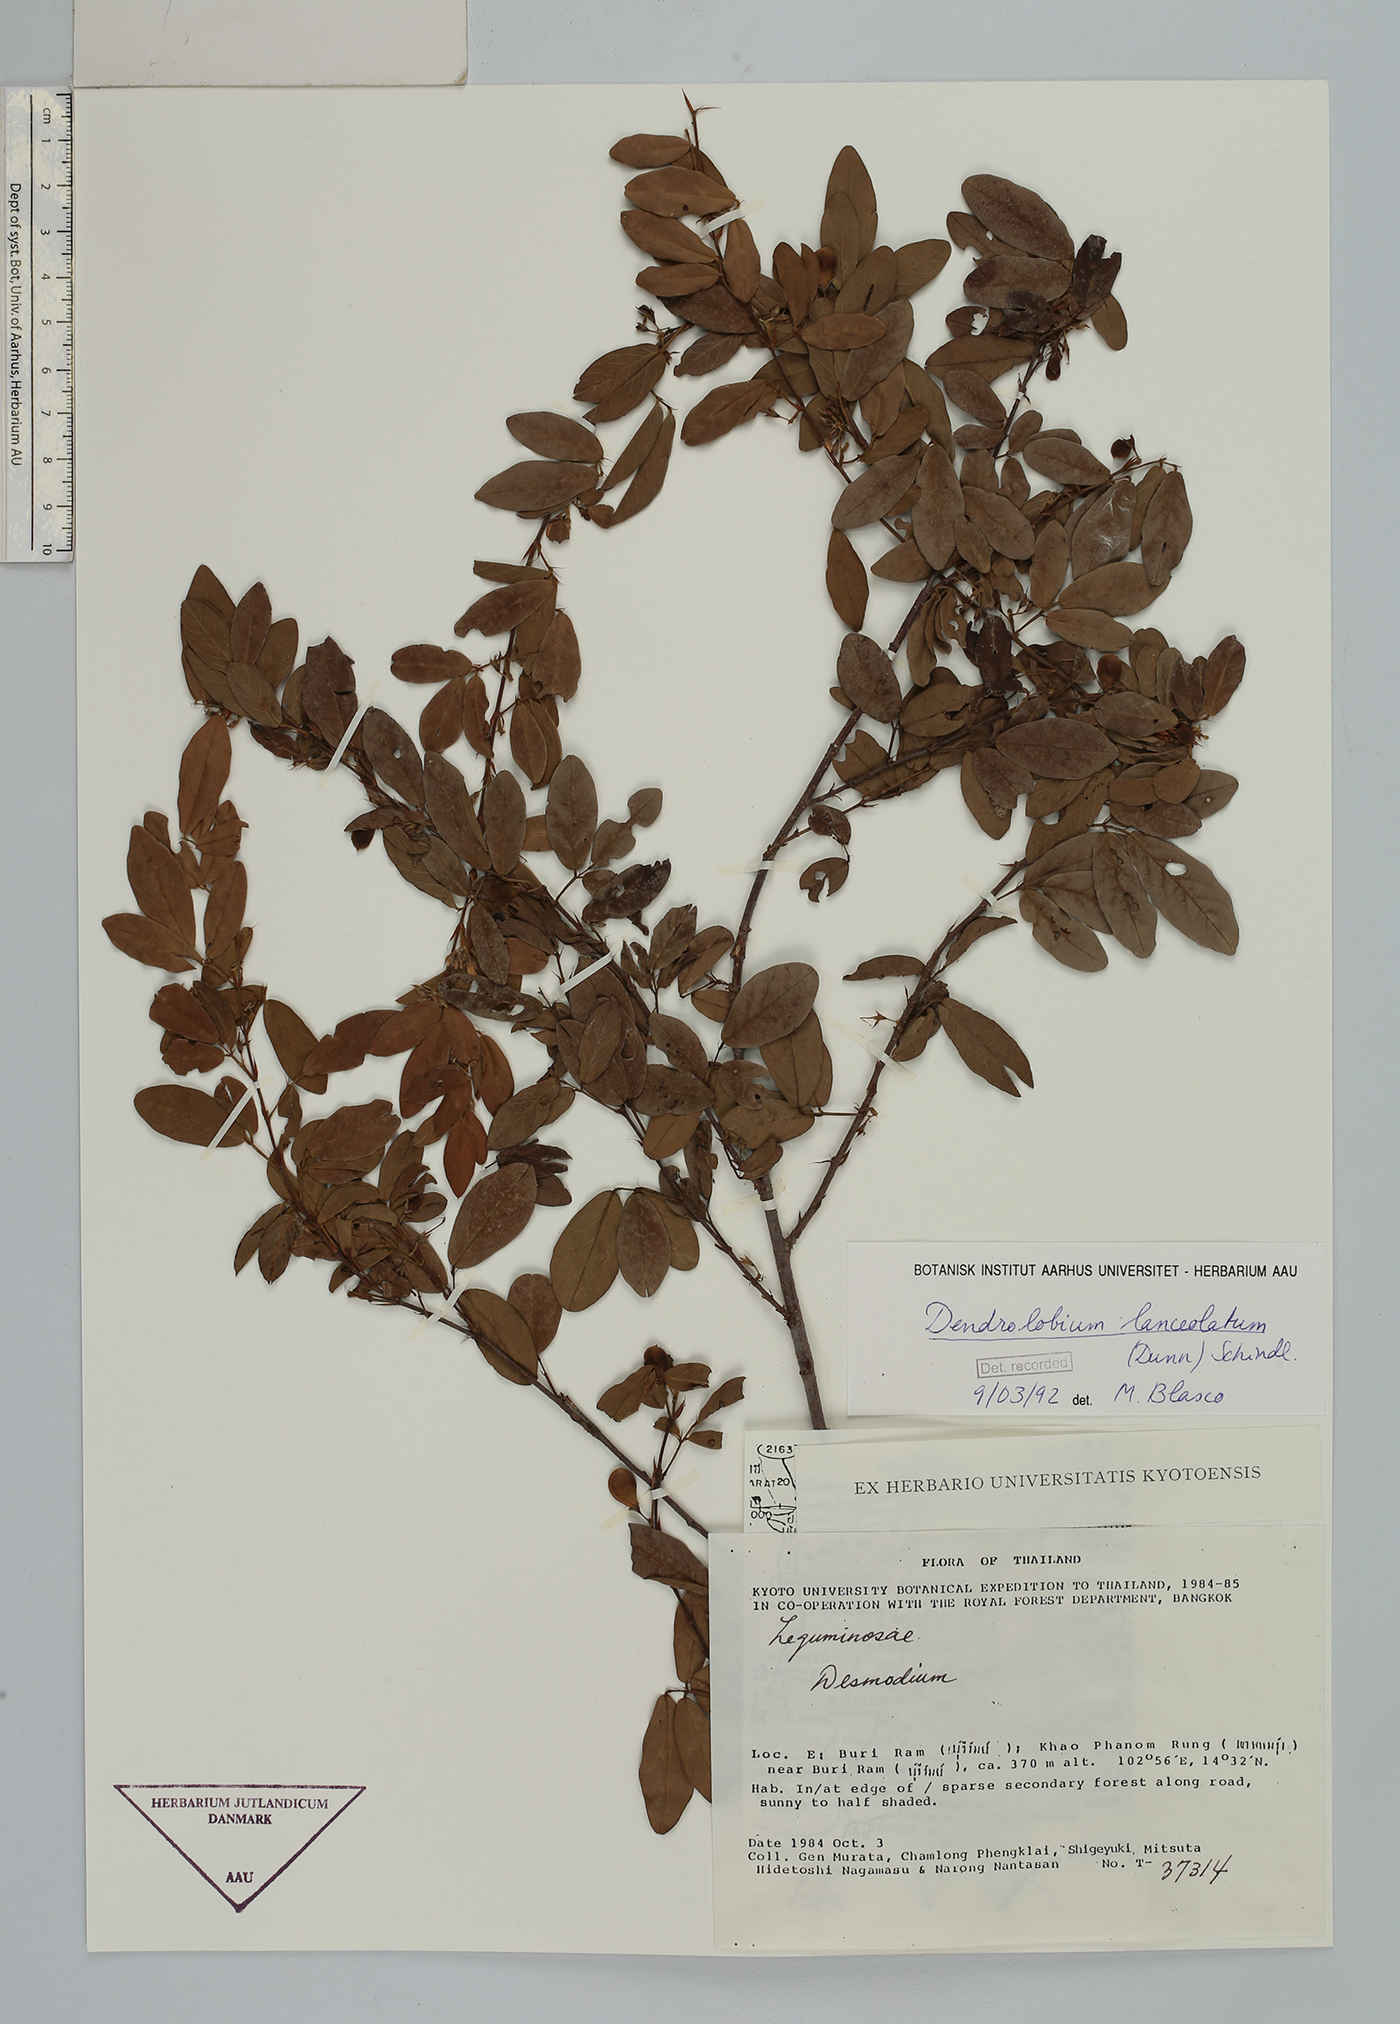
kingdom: Plantae
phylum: Tracheophyta
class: Magnoliopsida
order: Fabales
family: Fabaceae
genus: Dendrolobium
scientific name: Dendrolobium lanceolatum
